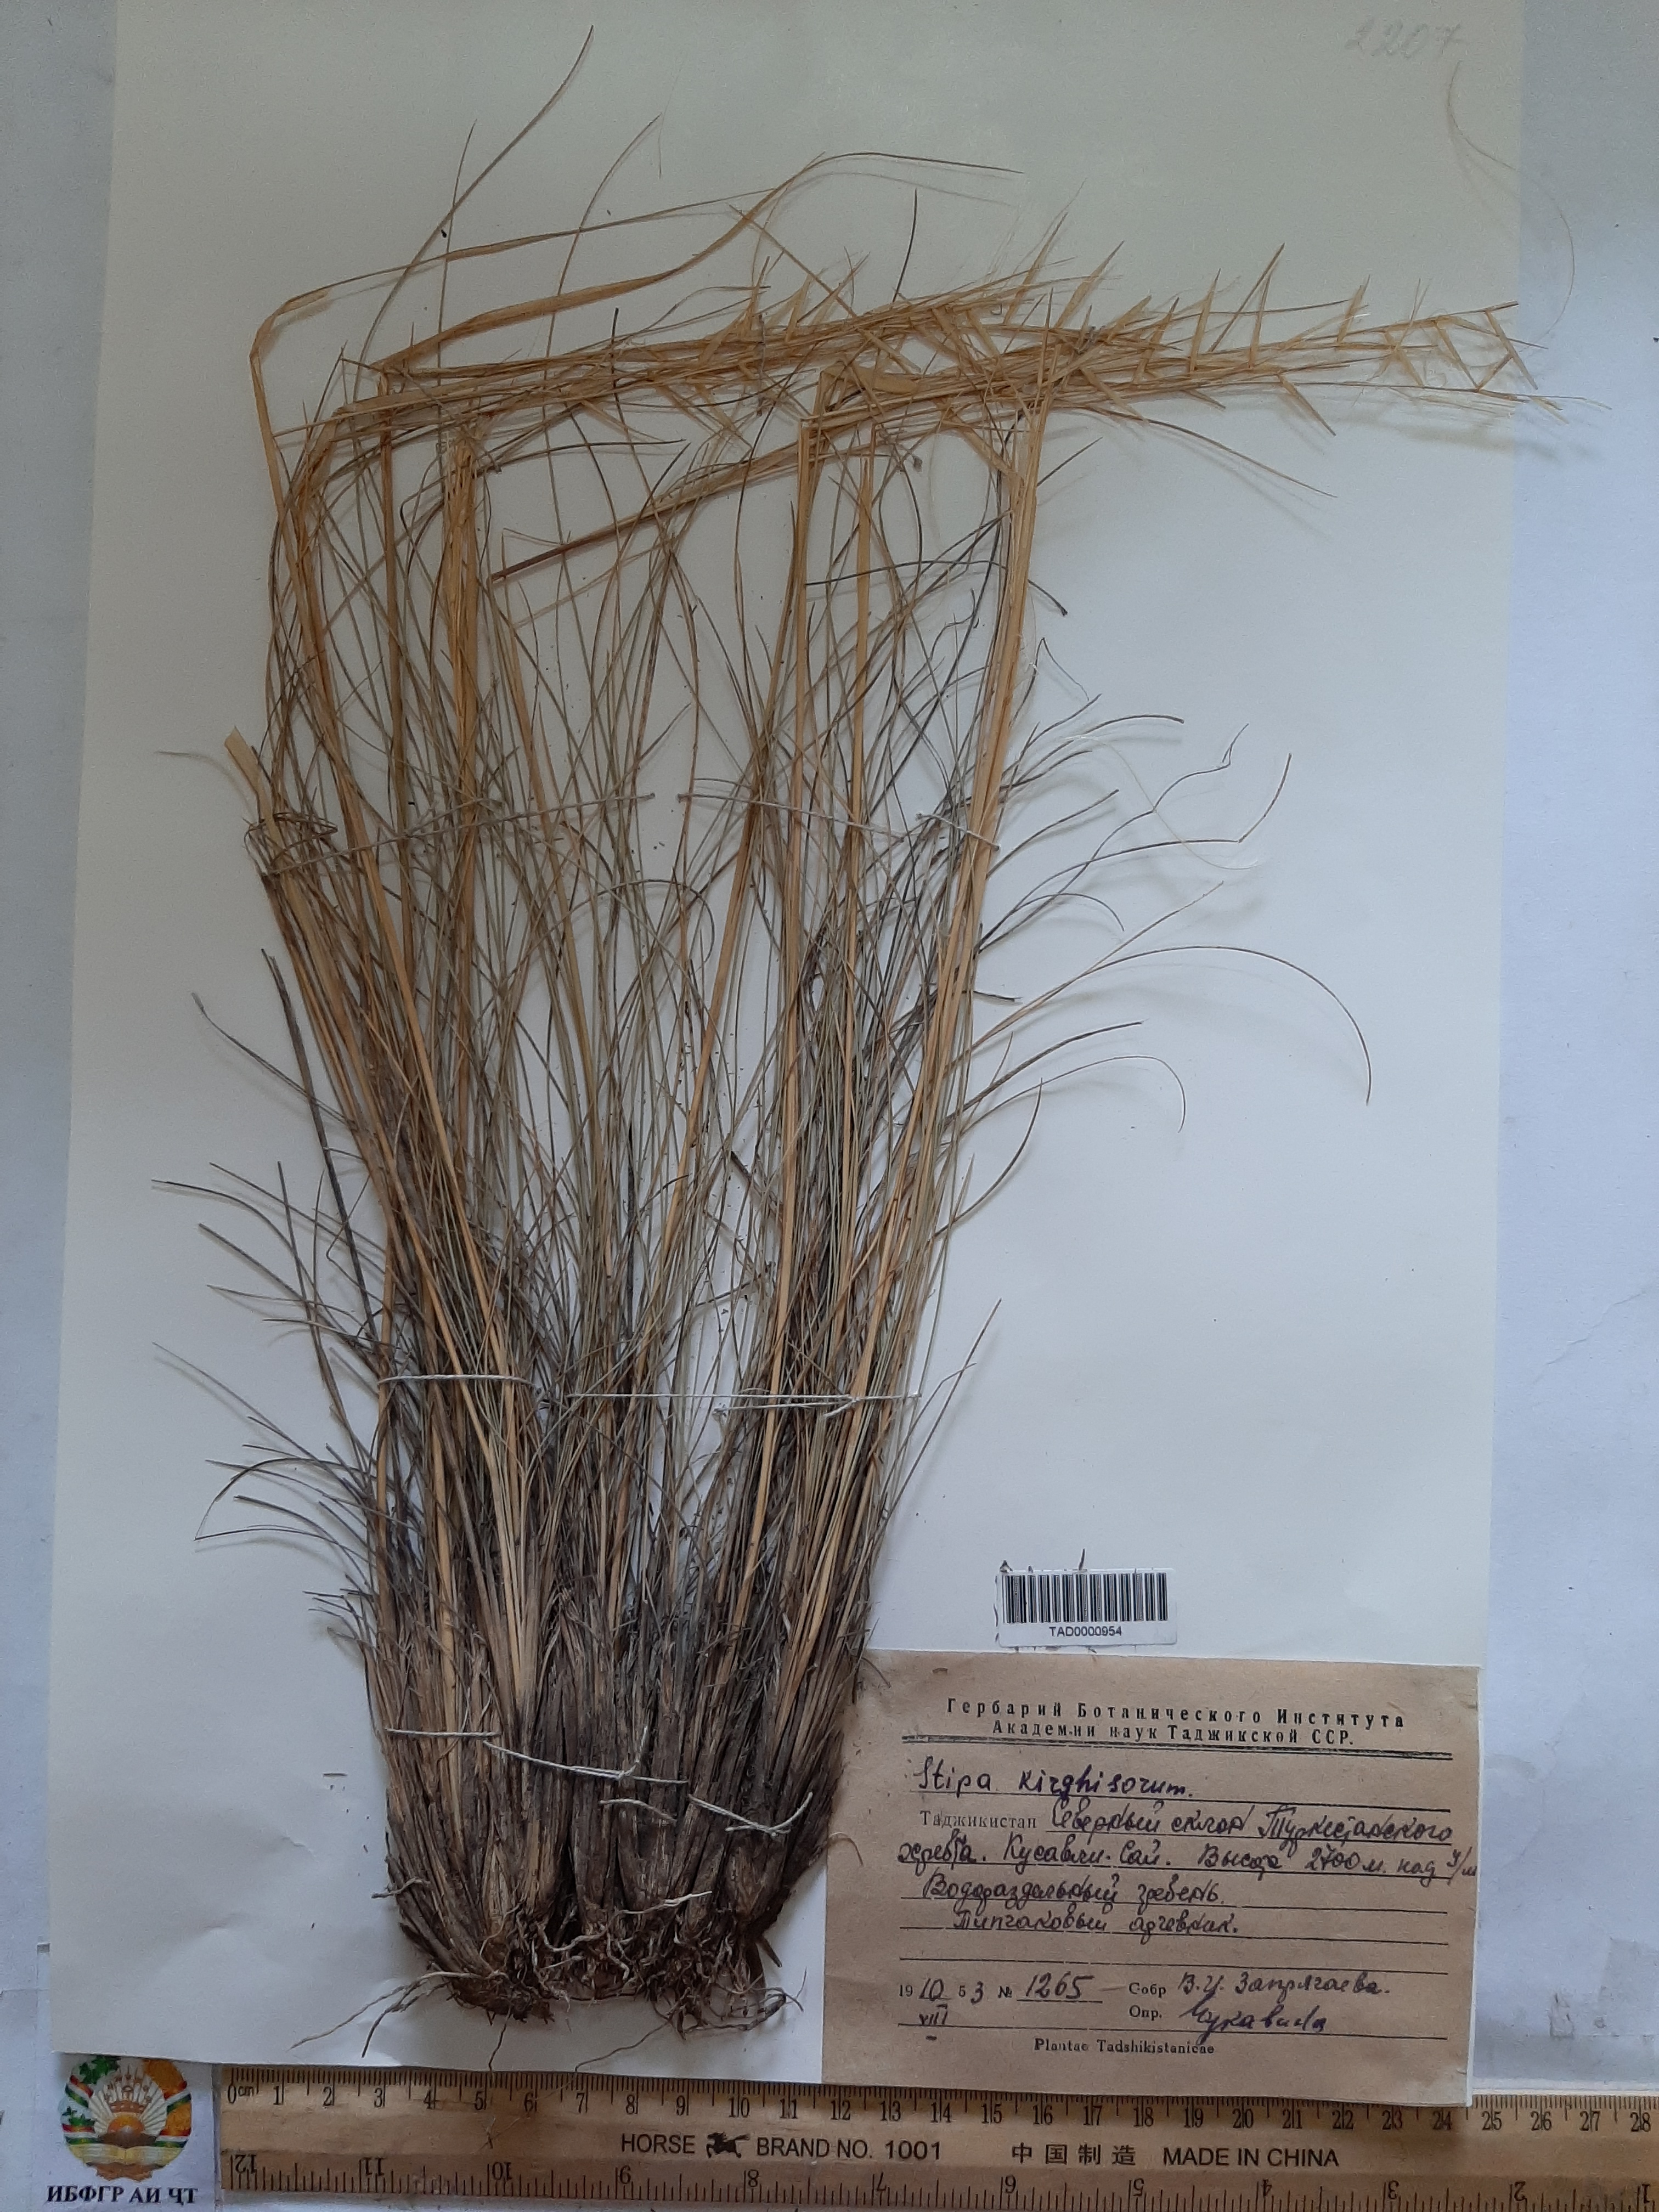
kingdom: Plantae
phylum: Tracheophyta
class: Liliopsida
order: Poales
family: Poaceae
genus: Stipa
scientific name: Stipa kirghisorum
